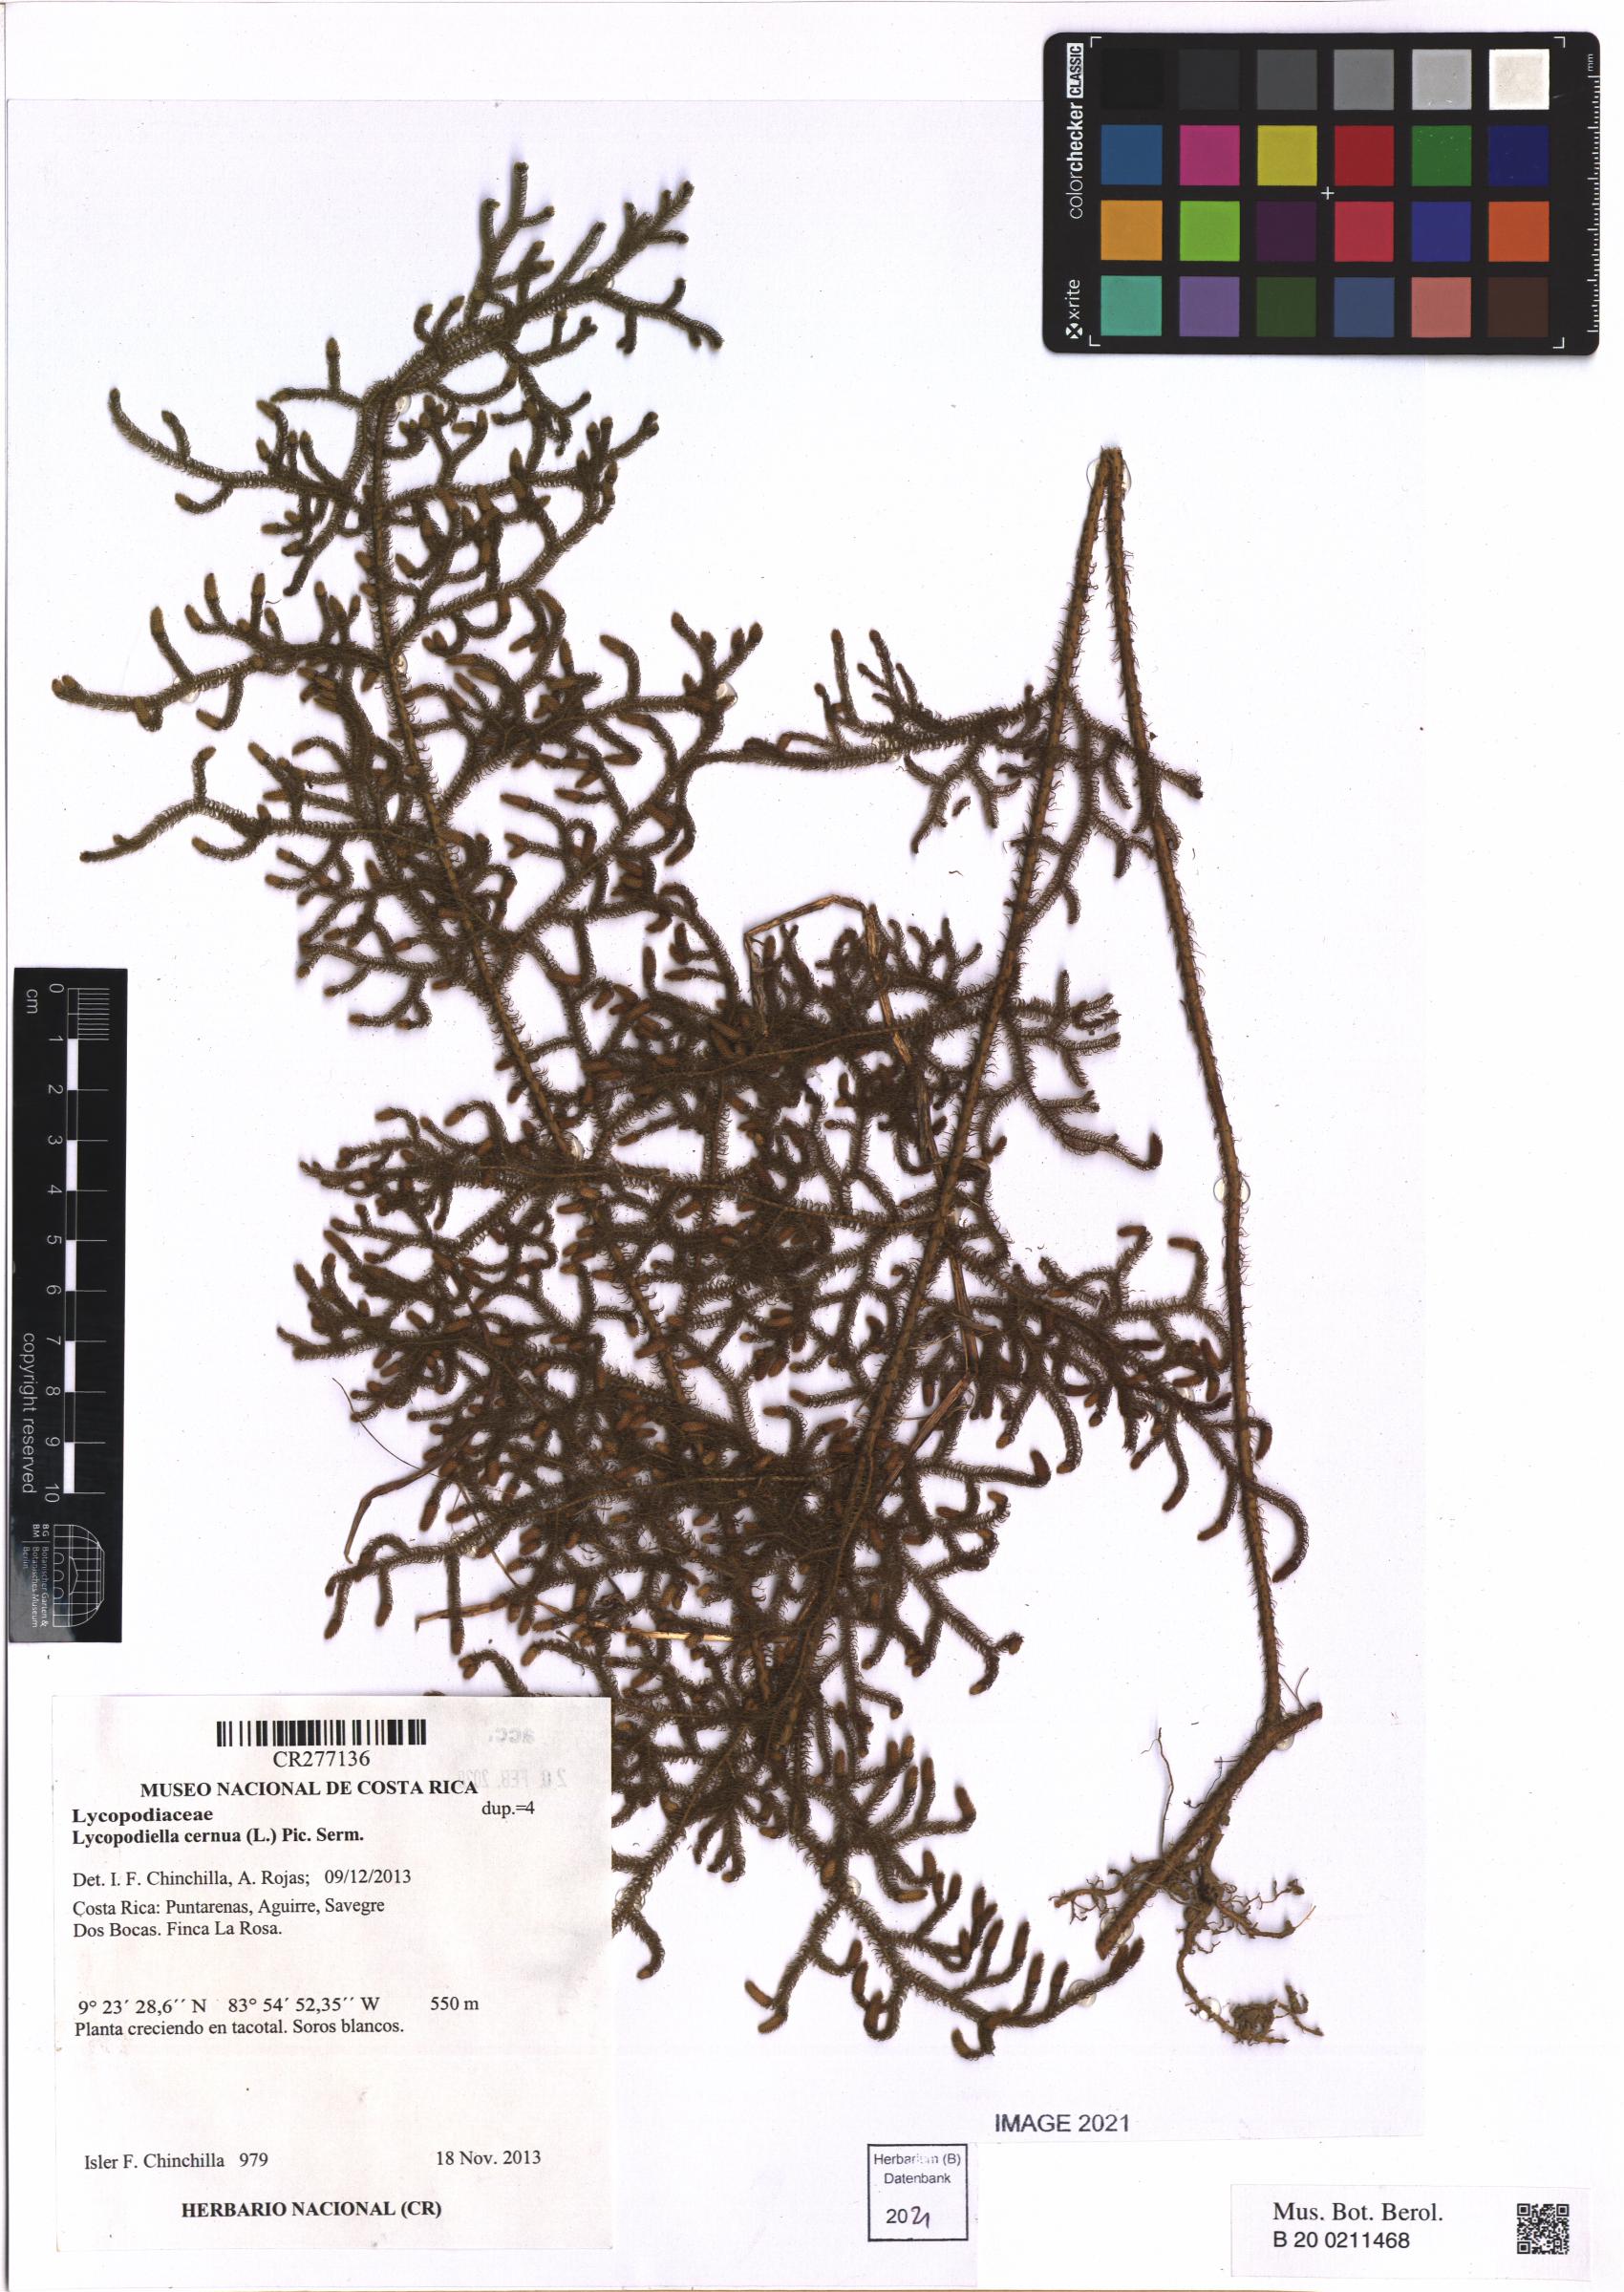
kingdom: Plantae
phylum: Tracheophyta
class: Lycopodiopsida
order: Lycopodiales
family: Lycopodiaceae
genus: Palhinhaea
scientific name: Palhinhaea cernua
